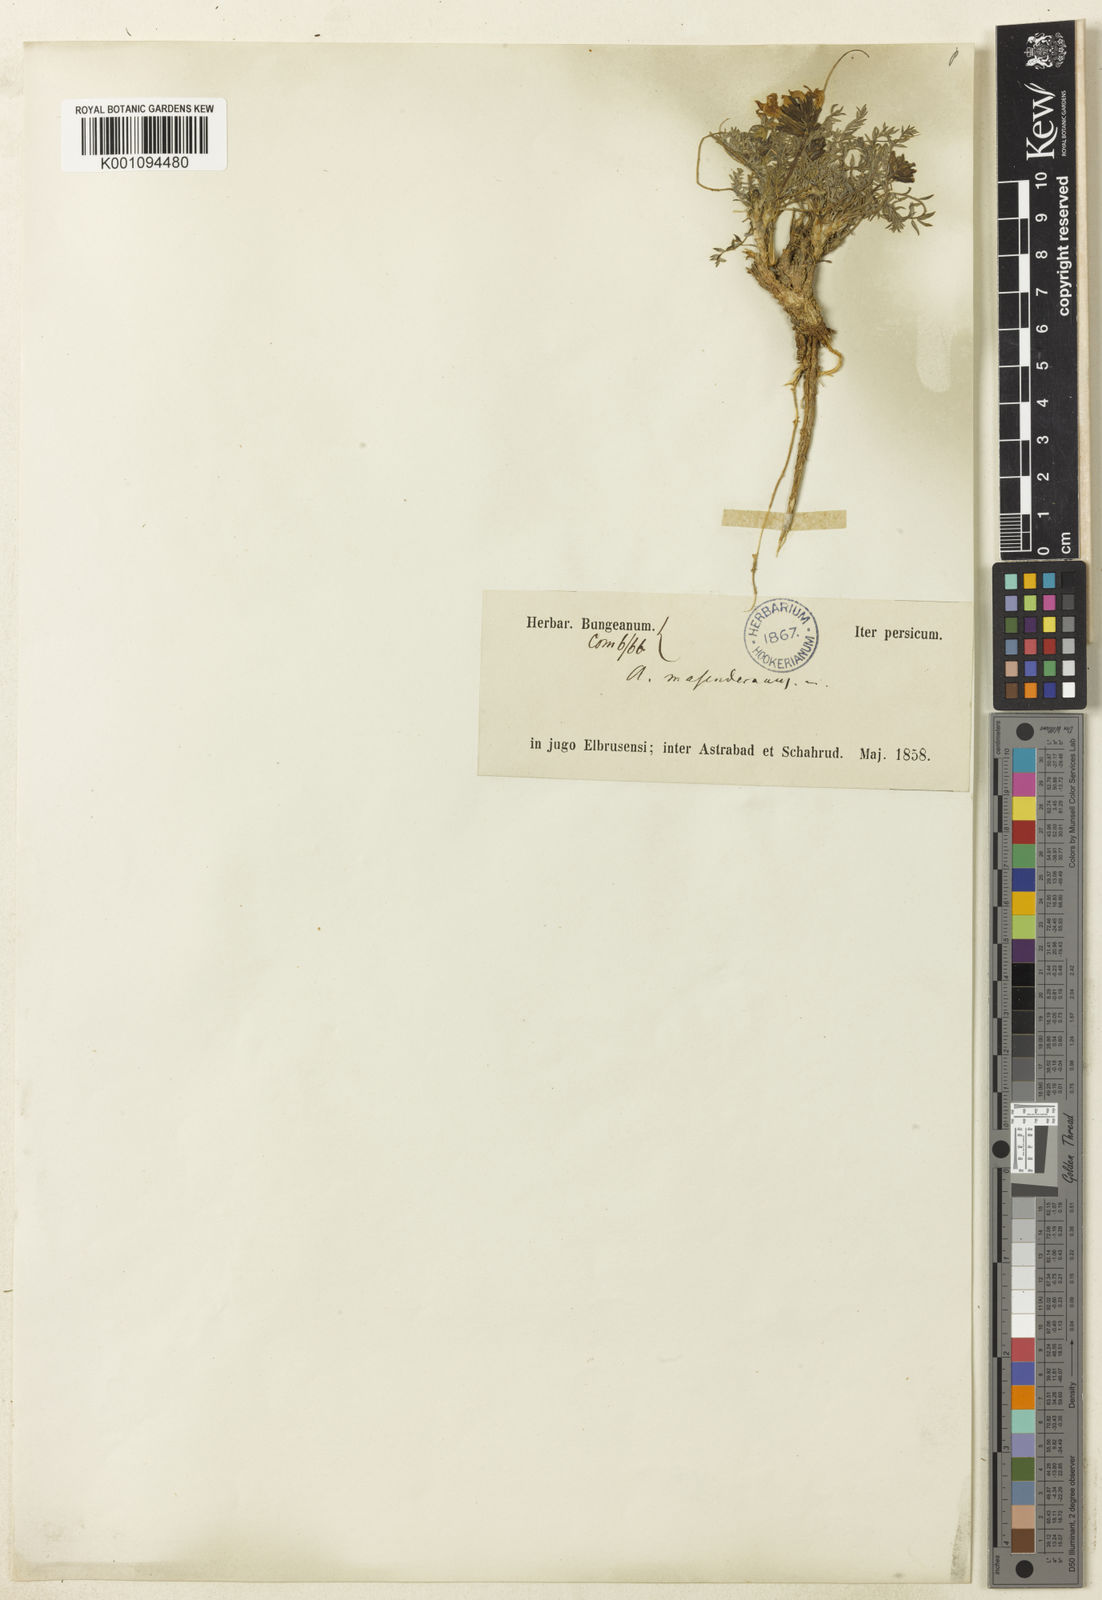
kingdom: Plantae
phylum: Tracheophyta
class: Magnoliopsida
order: Fabales
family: Fabaceae
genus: Astragalus
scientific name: Astragalus
